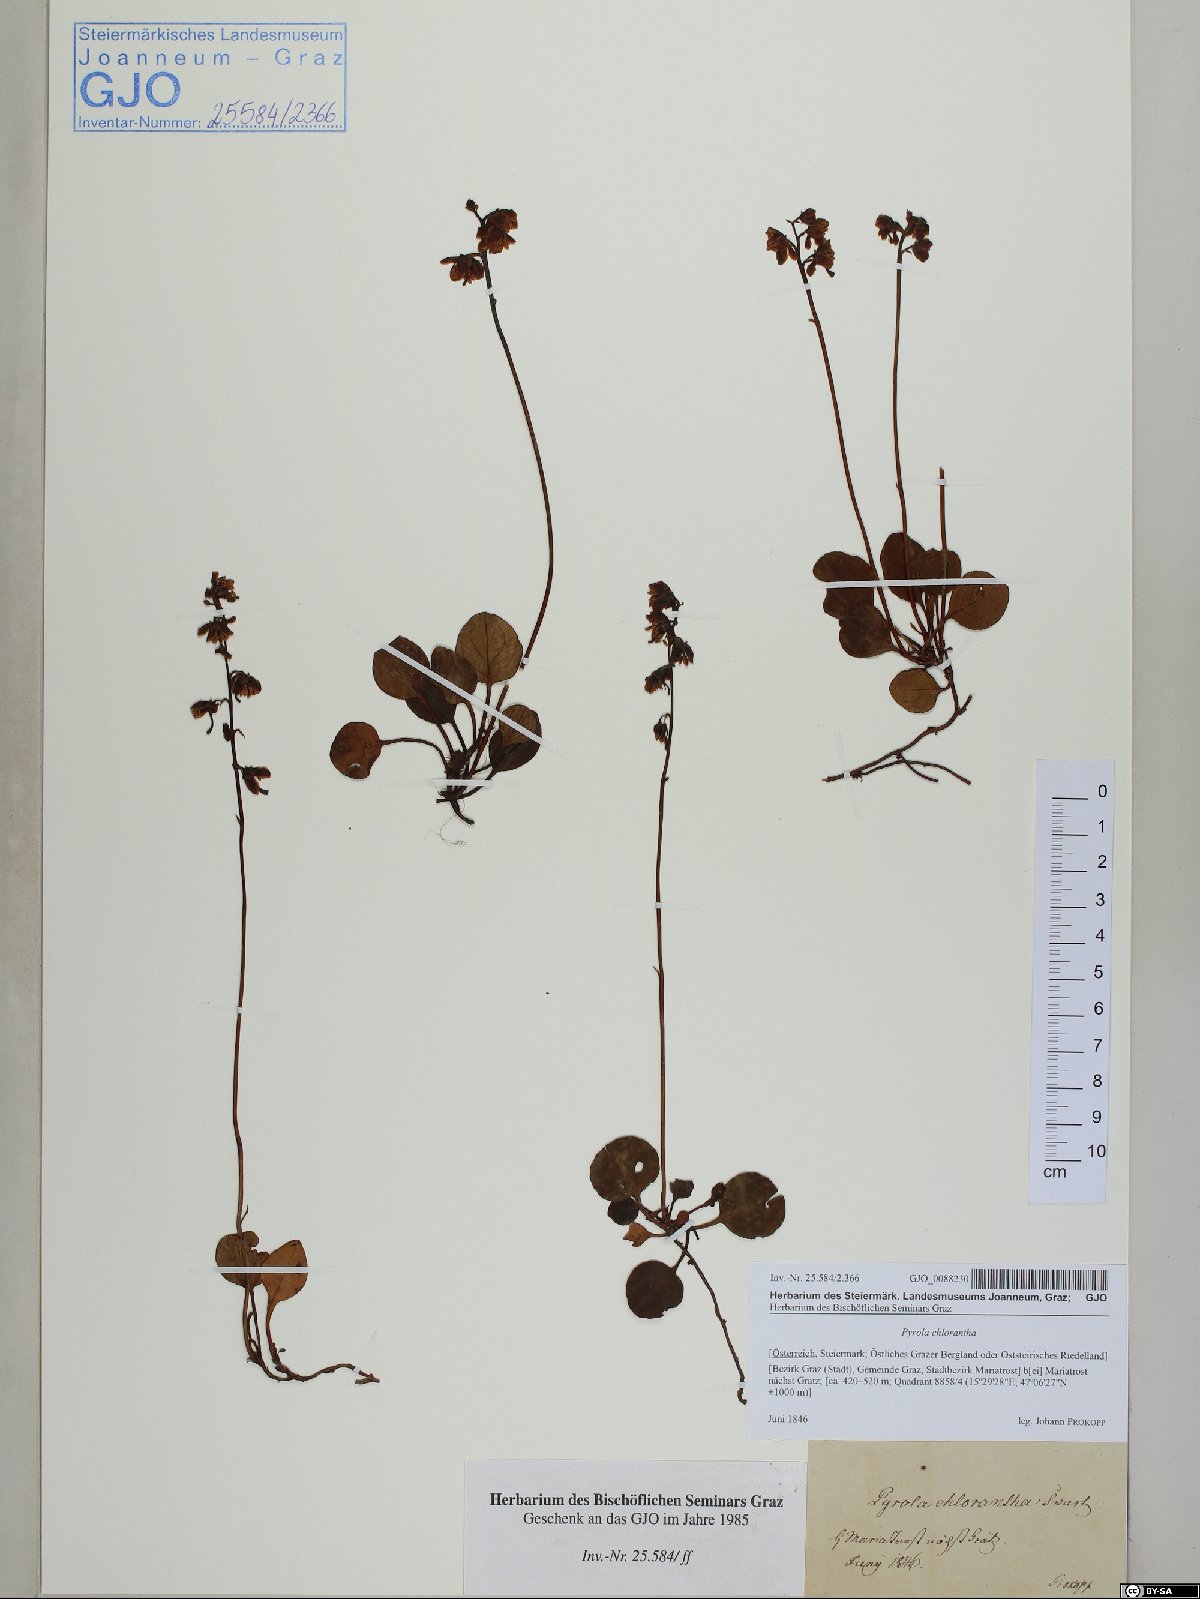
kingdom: Plantae
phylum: Tracheophyta
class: Magnoliopsida
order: Ericales
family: Ericaceae
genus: Pyrola
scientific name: Pyrola chlorantha
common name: Green wintergreen
